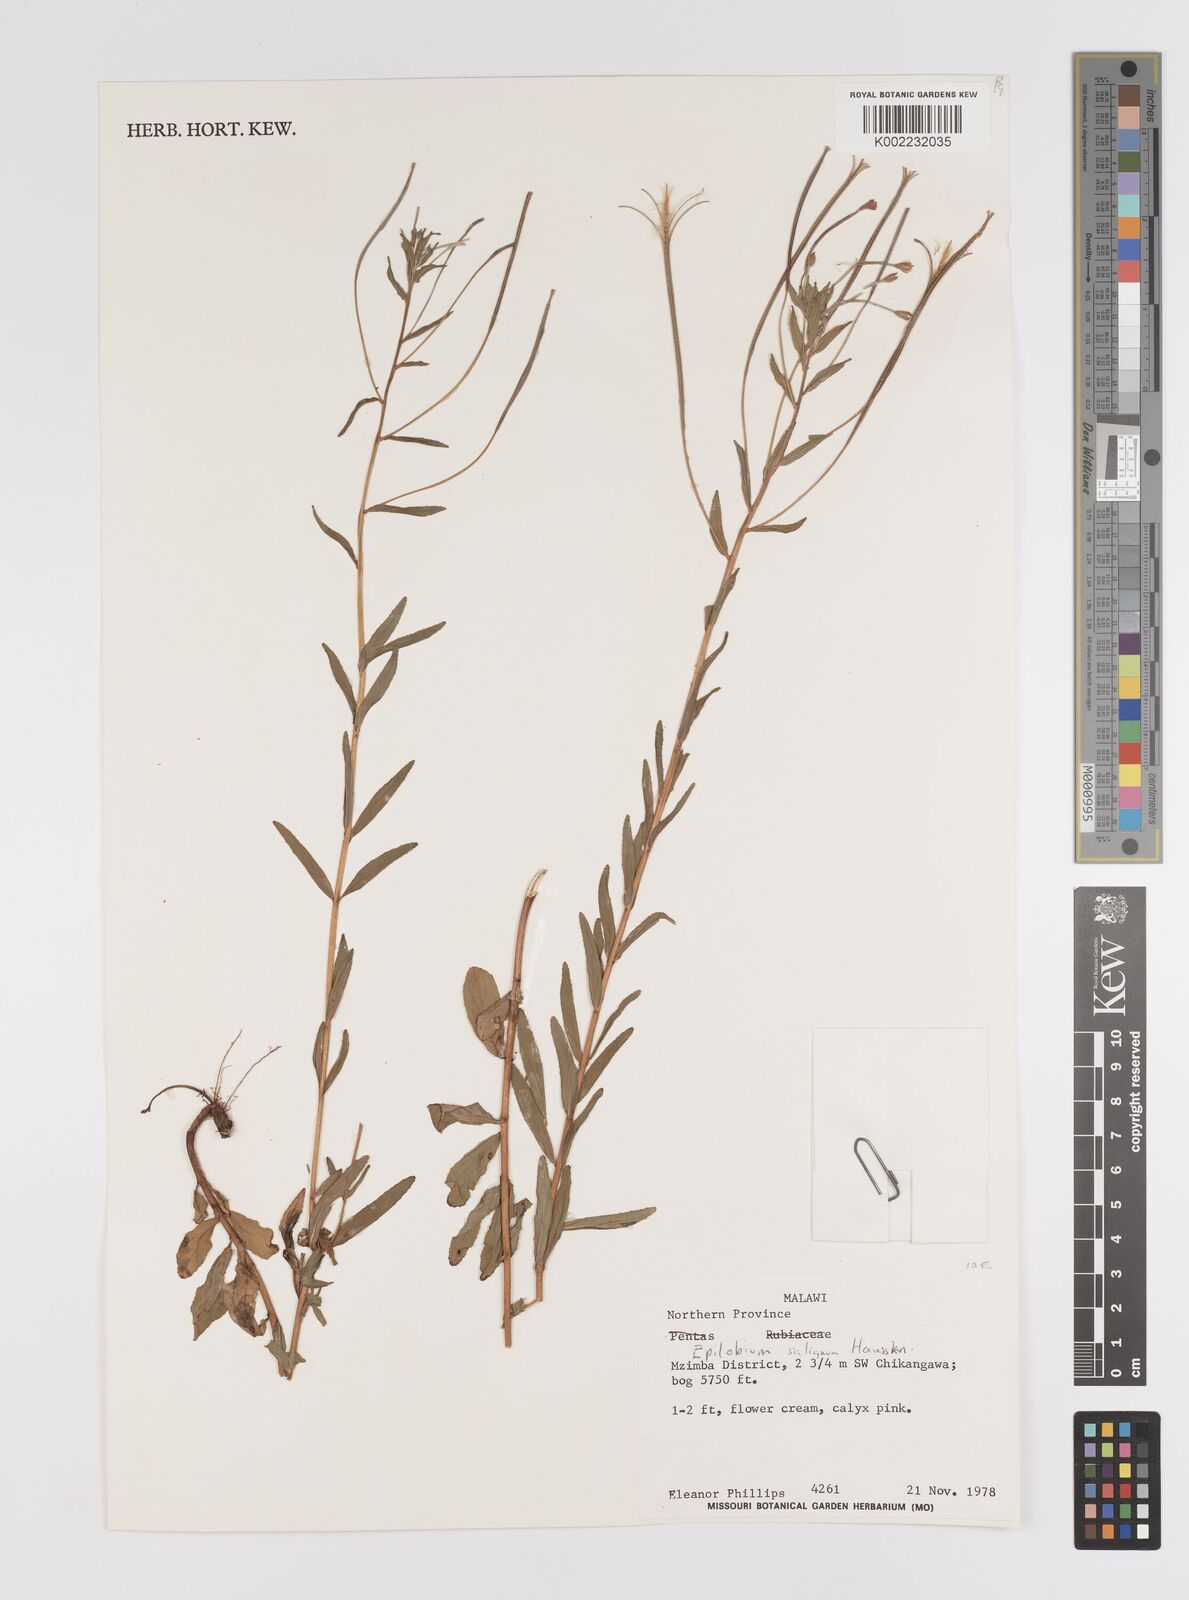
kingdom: Plantae
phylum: Tracheophyta
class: Magnoliopsida
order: Myrtales
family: Onagraceae
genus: Epilobium
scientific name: Epilobium salignum
